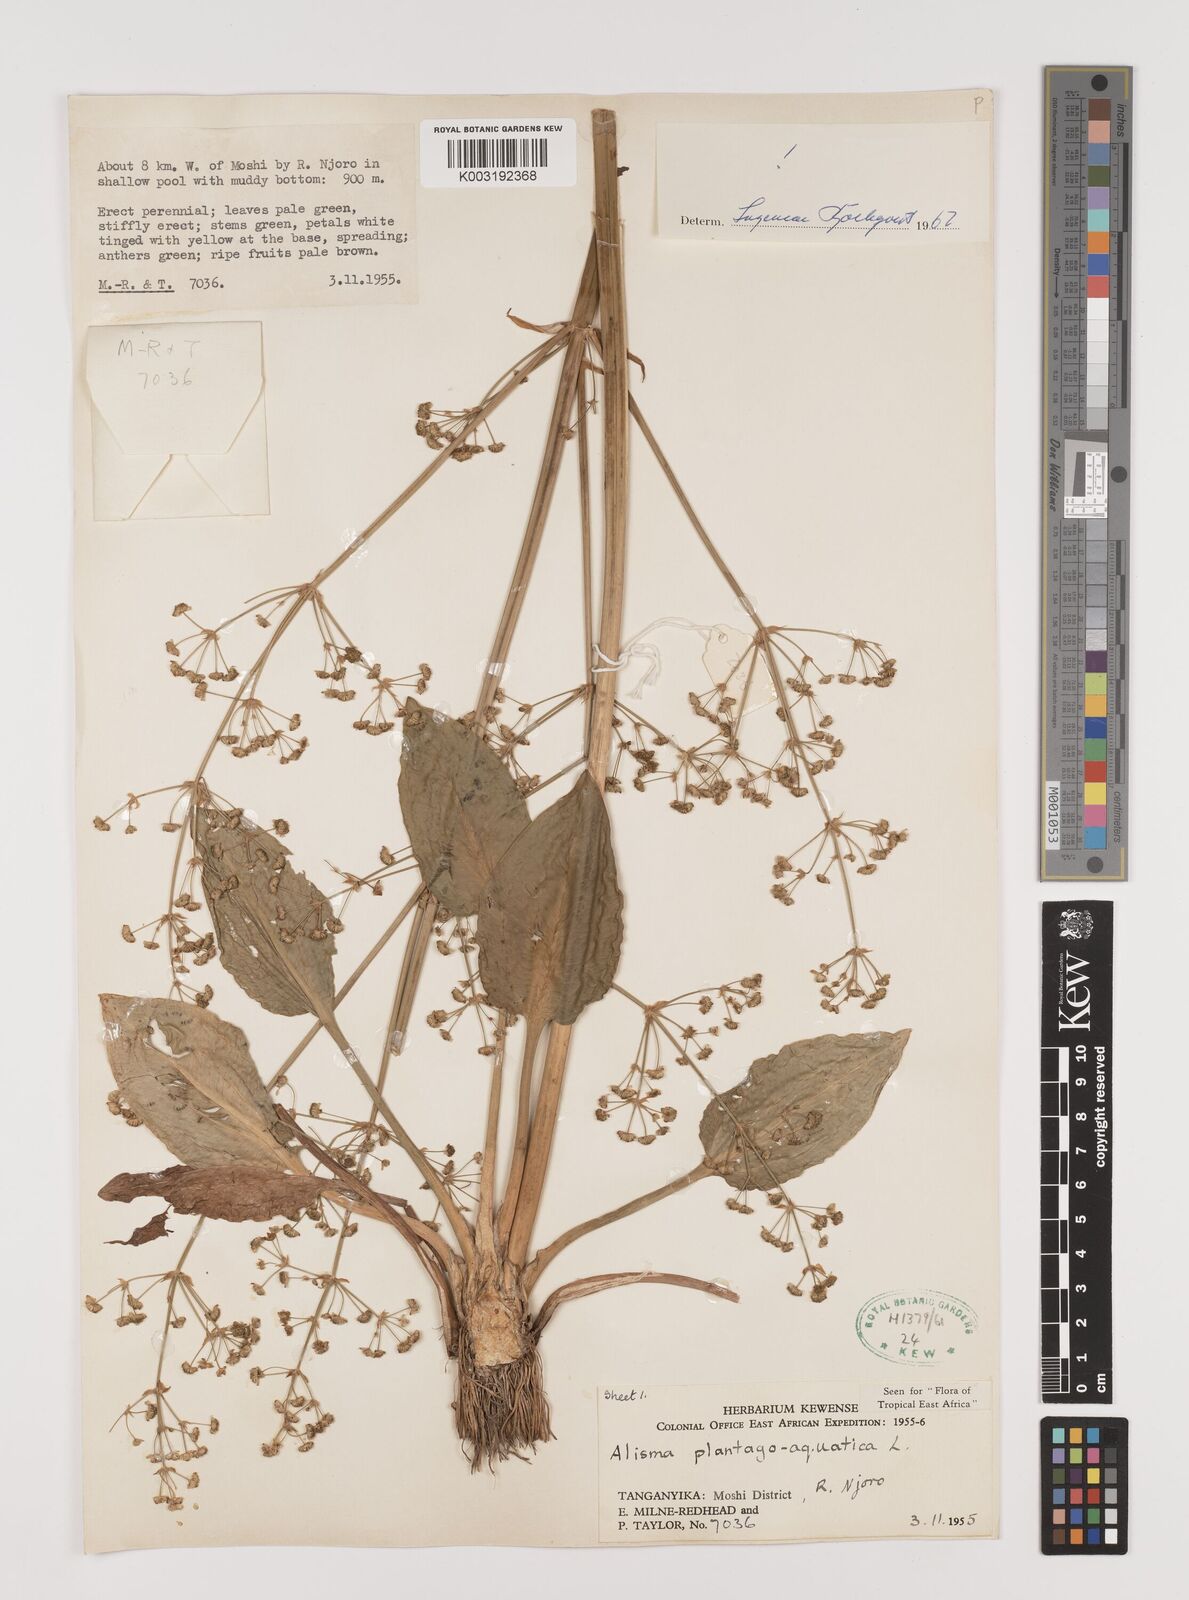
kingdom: Plantae
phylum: Tracheophyta
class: Liliopsida
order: Alismatales
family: Alismataceae
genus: Alisma
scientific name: Alisma plantago-aquatica
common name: Water-plantain
